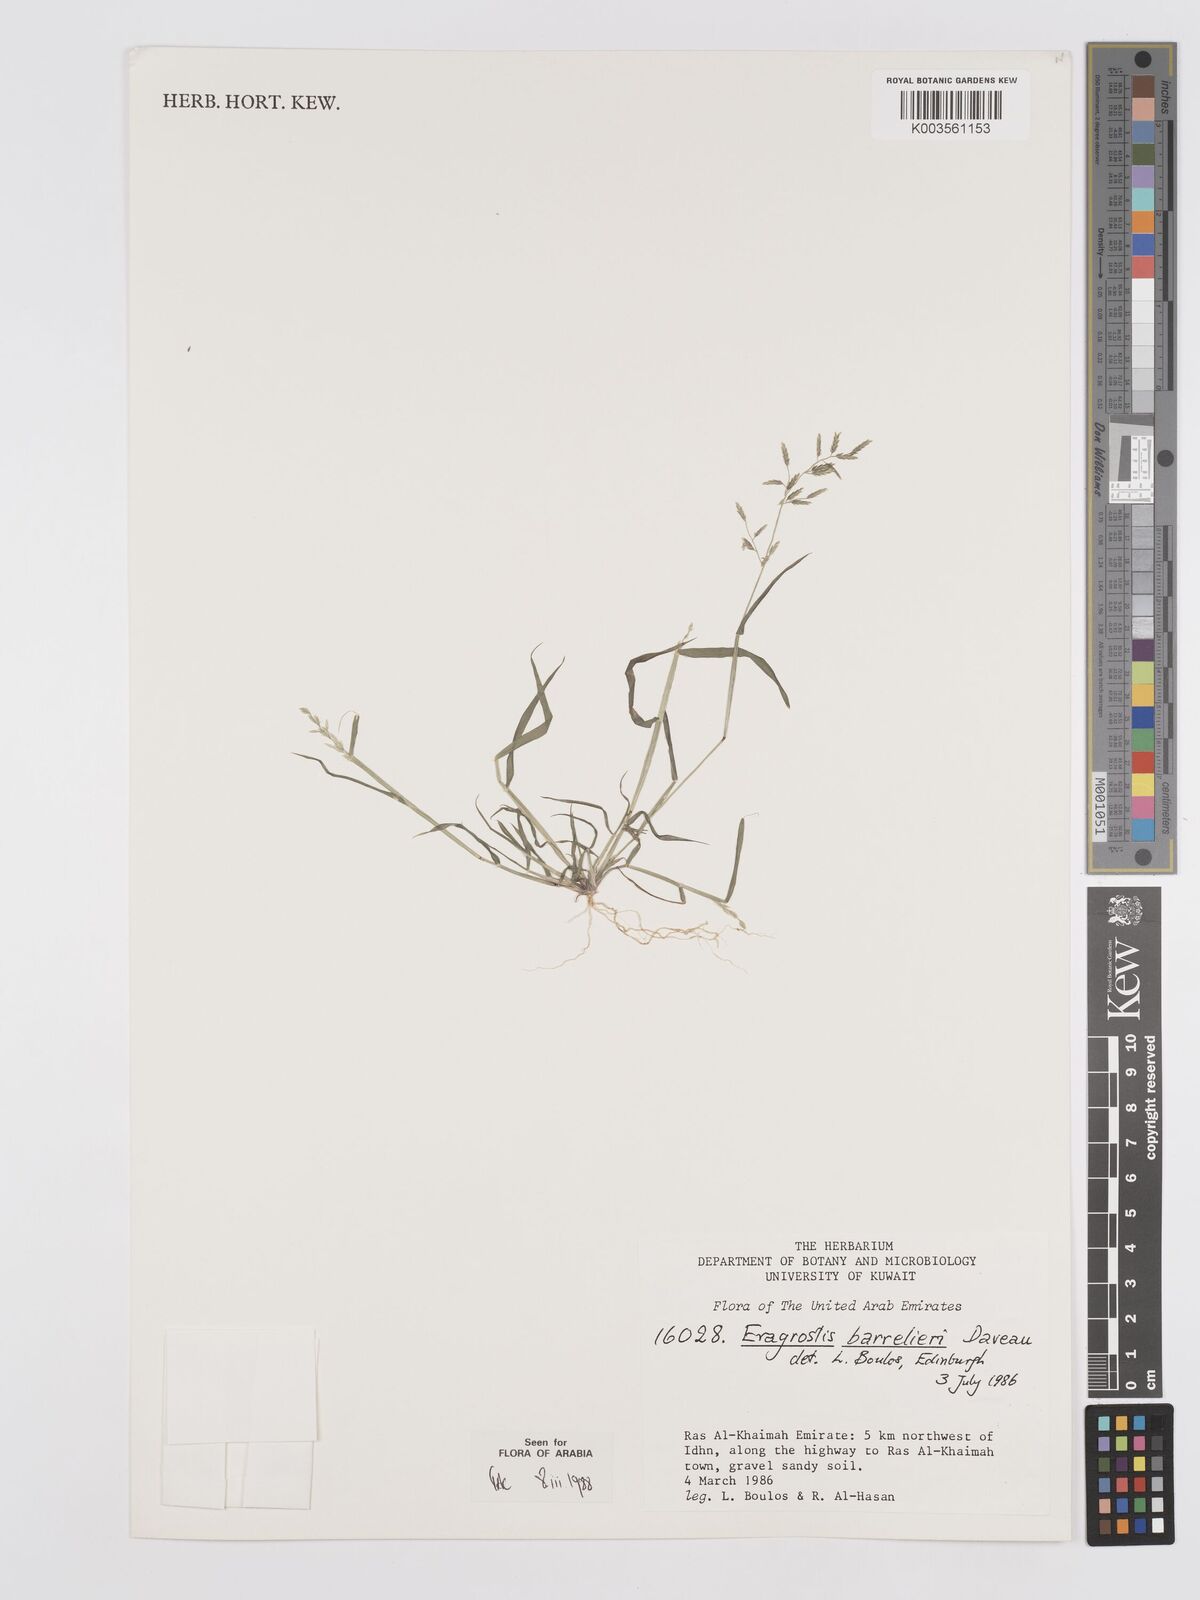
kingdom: Plantae
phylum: Tracheophyta
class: Liliopsida
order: Poales
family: Poaceae
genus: Eragrostis
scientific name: Eragrostis barrelieri
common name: Mediterranean lovegrass
